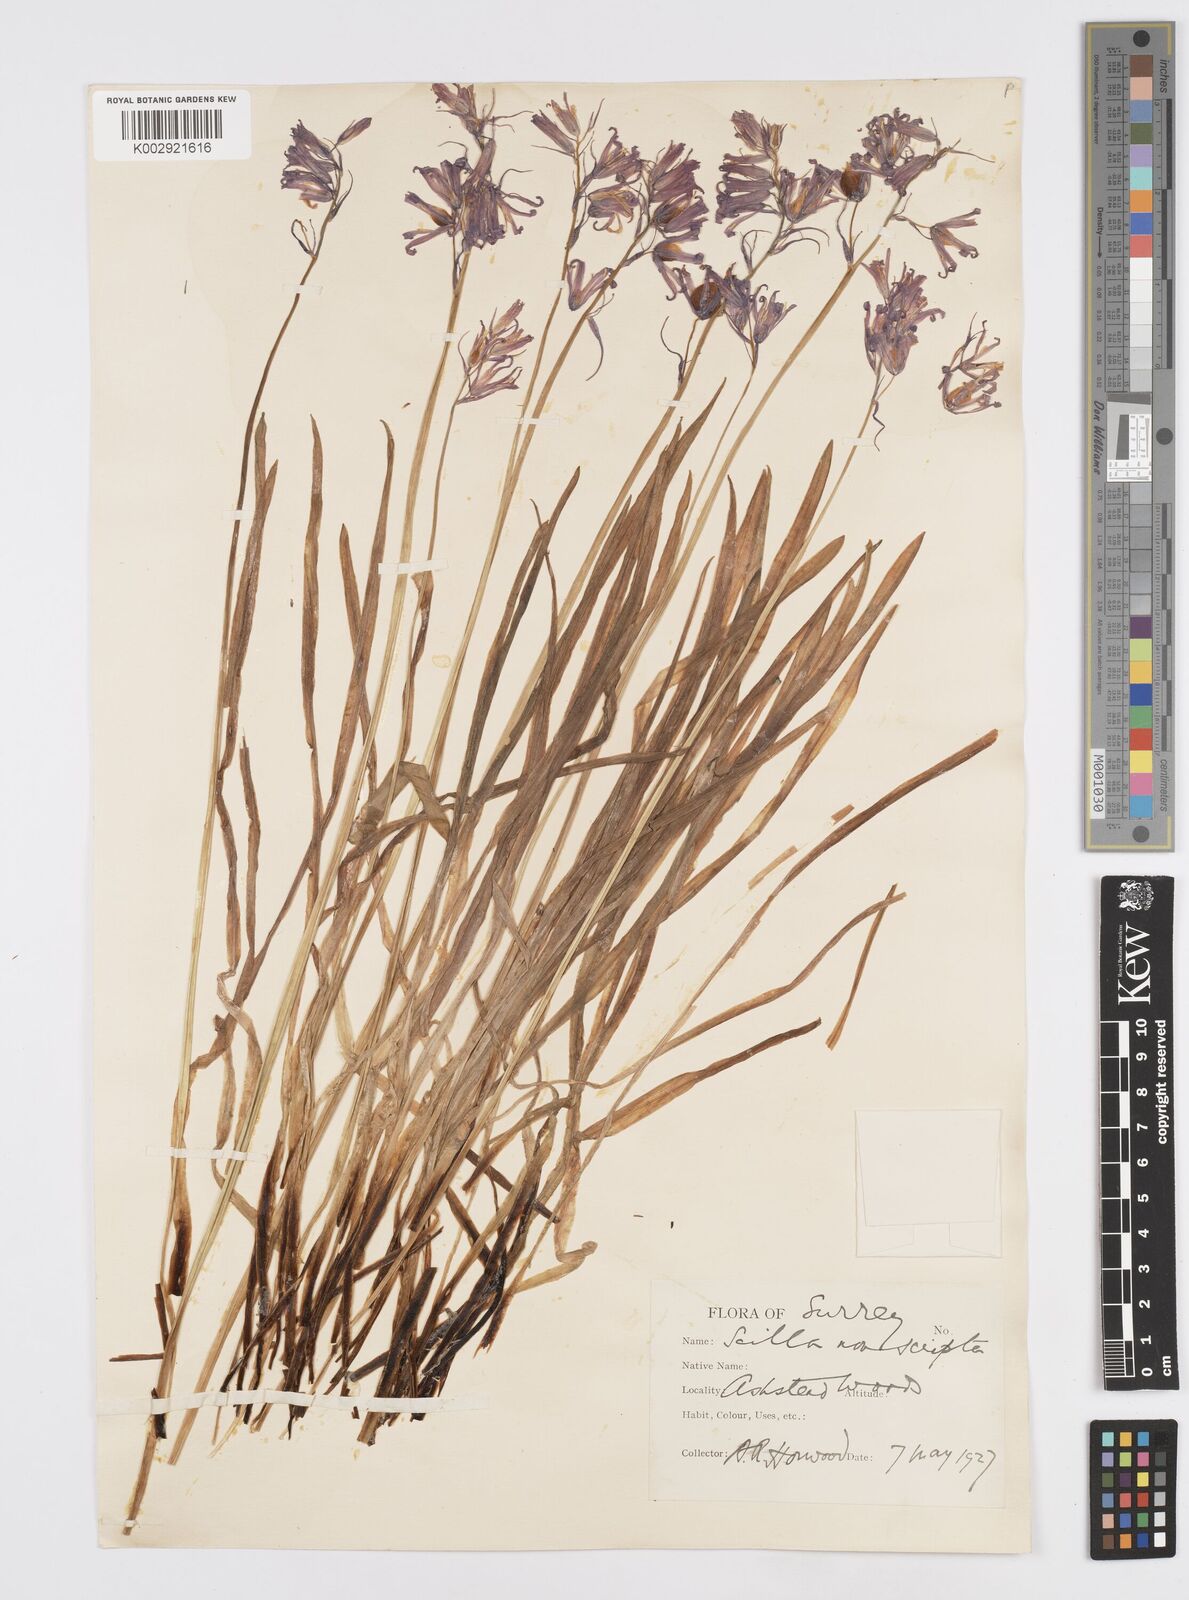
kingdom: Plantae
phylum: Tracheophyta
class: Liliopsida
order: Asparagales
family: Asparagaceae
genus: Hyacinthoides
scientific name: Hyacinthoides non-scripta
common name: Bluebell
